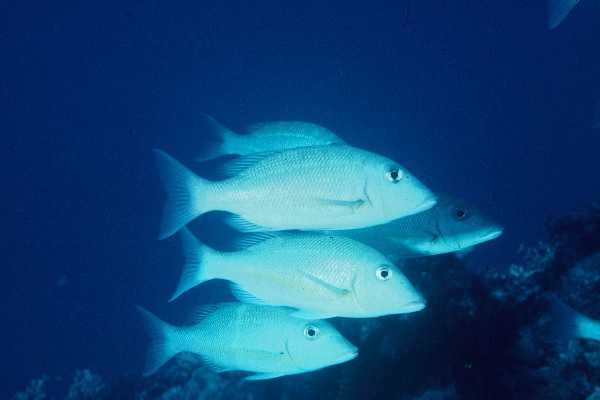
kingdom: Animalia
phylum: Chordata
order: Perciformes
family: Lethrinidae
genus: Lethrinus
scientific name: Lethrinus obsoletus
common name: Orange-striped emperor
